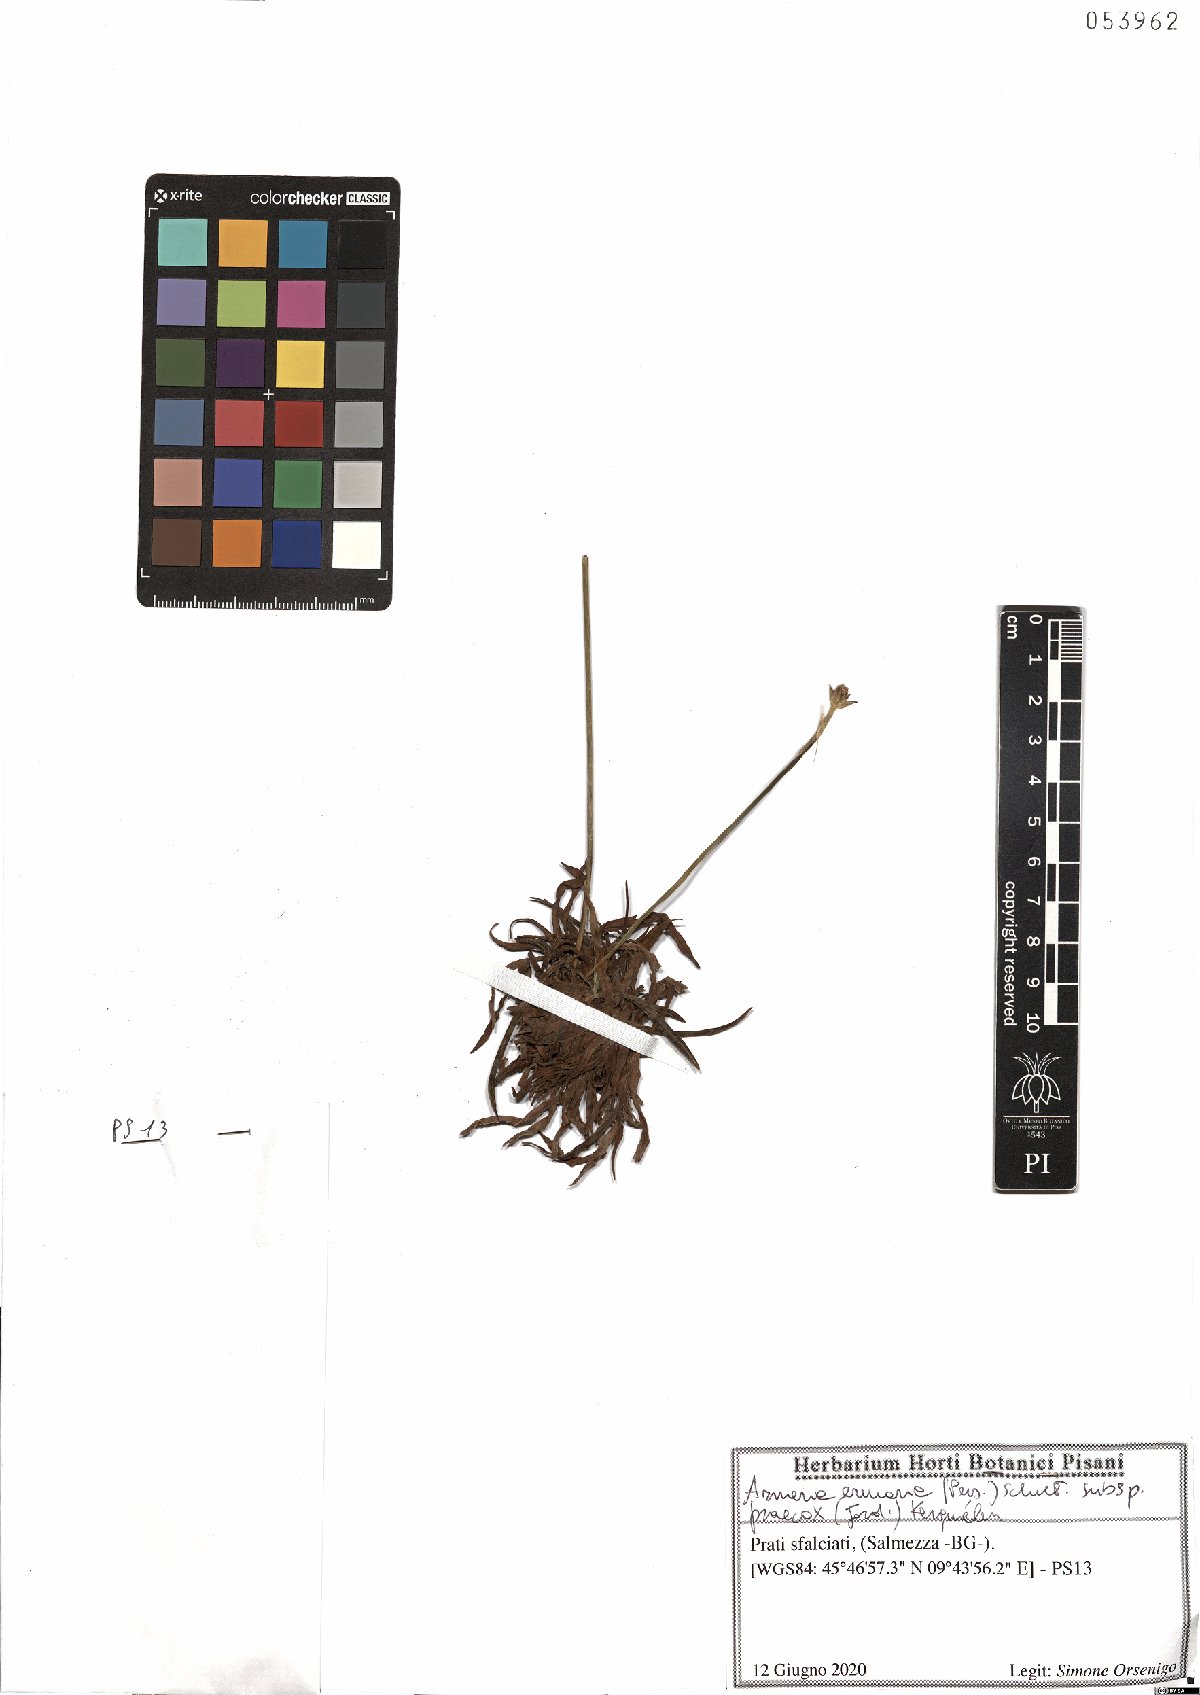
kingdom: Plantae
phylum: Tracheophyta
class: Magnoliopsida
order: Caryophyllales
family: Plumbaginaceae
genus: Armeria
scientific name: Armeria arenaria
